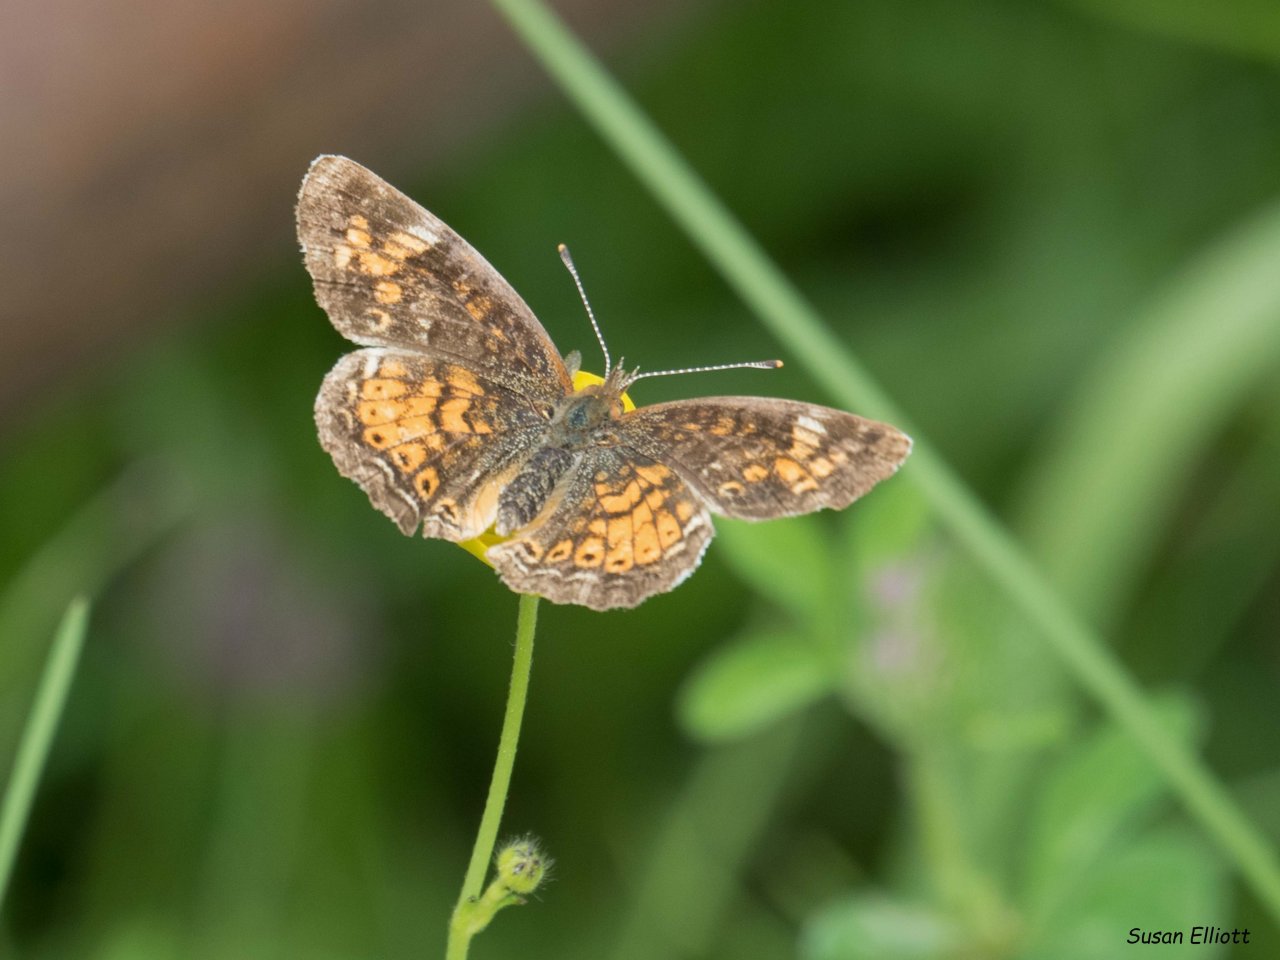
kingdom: Animalia
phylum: Arthropoda
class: Insecta
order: Lepidoptera
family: Nymphalidae
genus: Phyciodes
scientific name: Phyciodes
